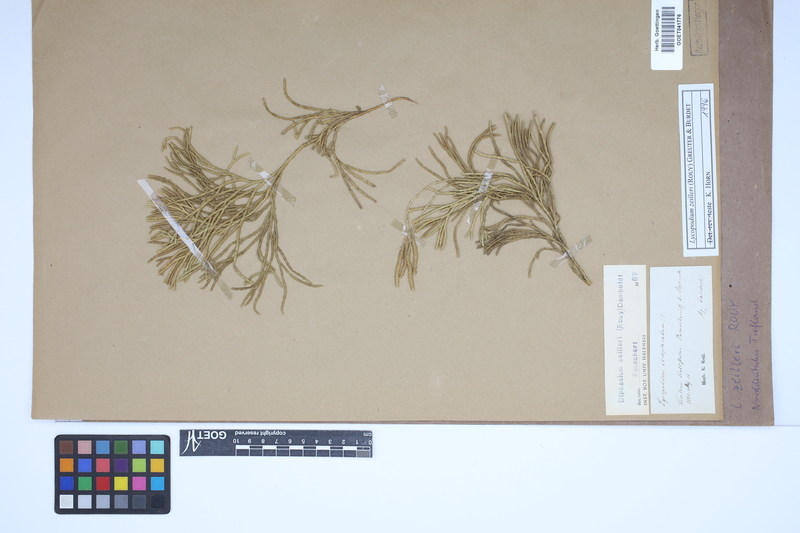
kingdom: Plantae
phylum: Tracheophyta
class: Lycopodiopsida
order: Lycopodiales
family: Lycopodiaceae
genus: Diphasiastrum
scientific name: Diphasiastrum zeilleri
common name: Zeiller's clubmoss
